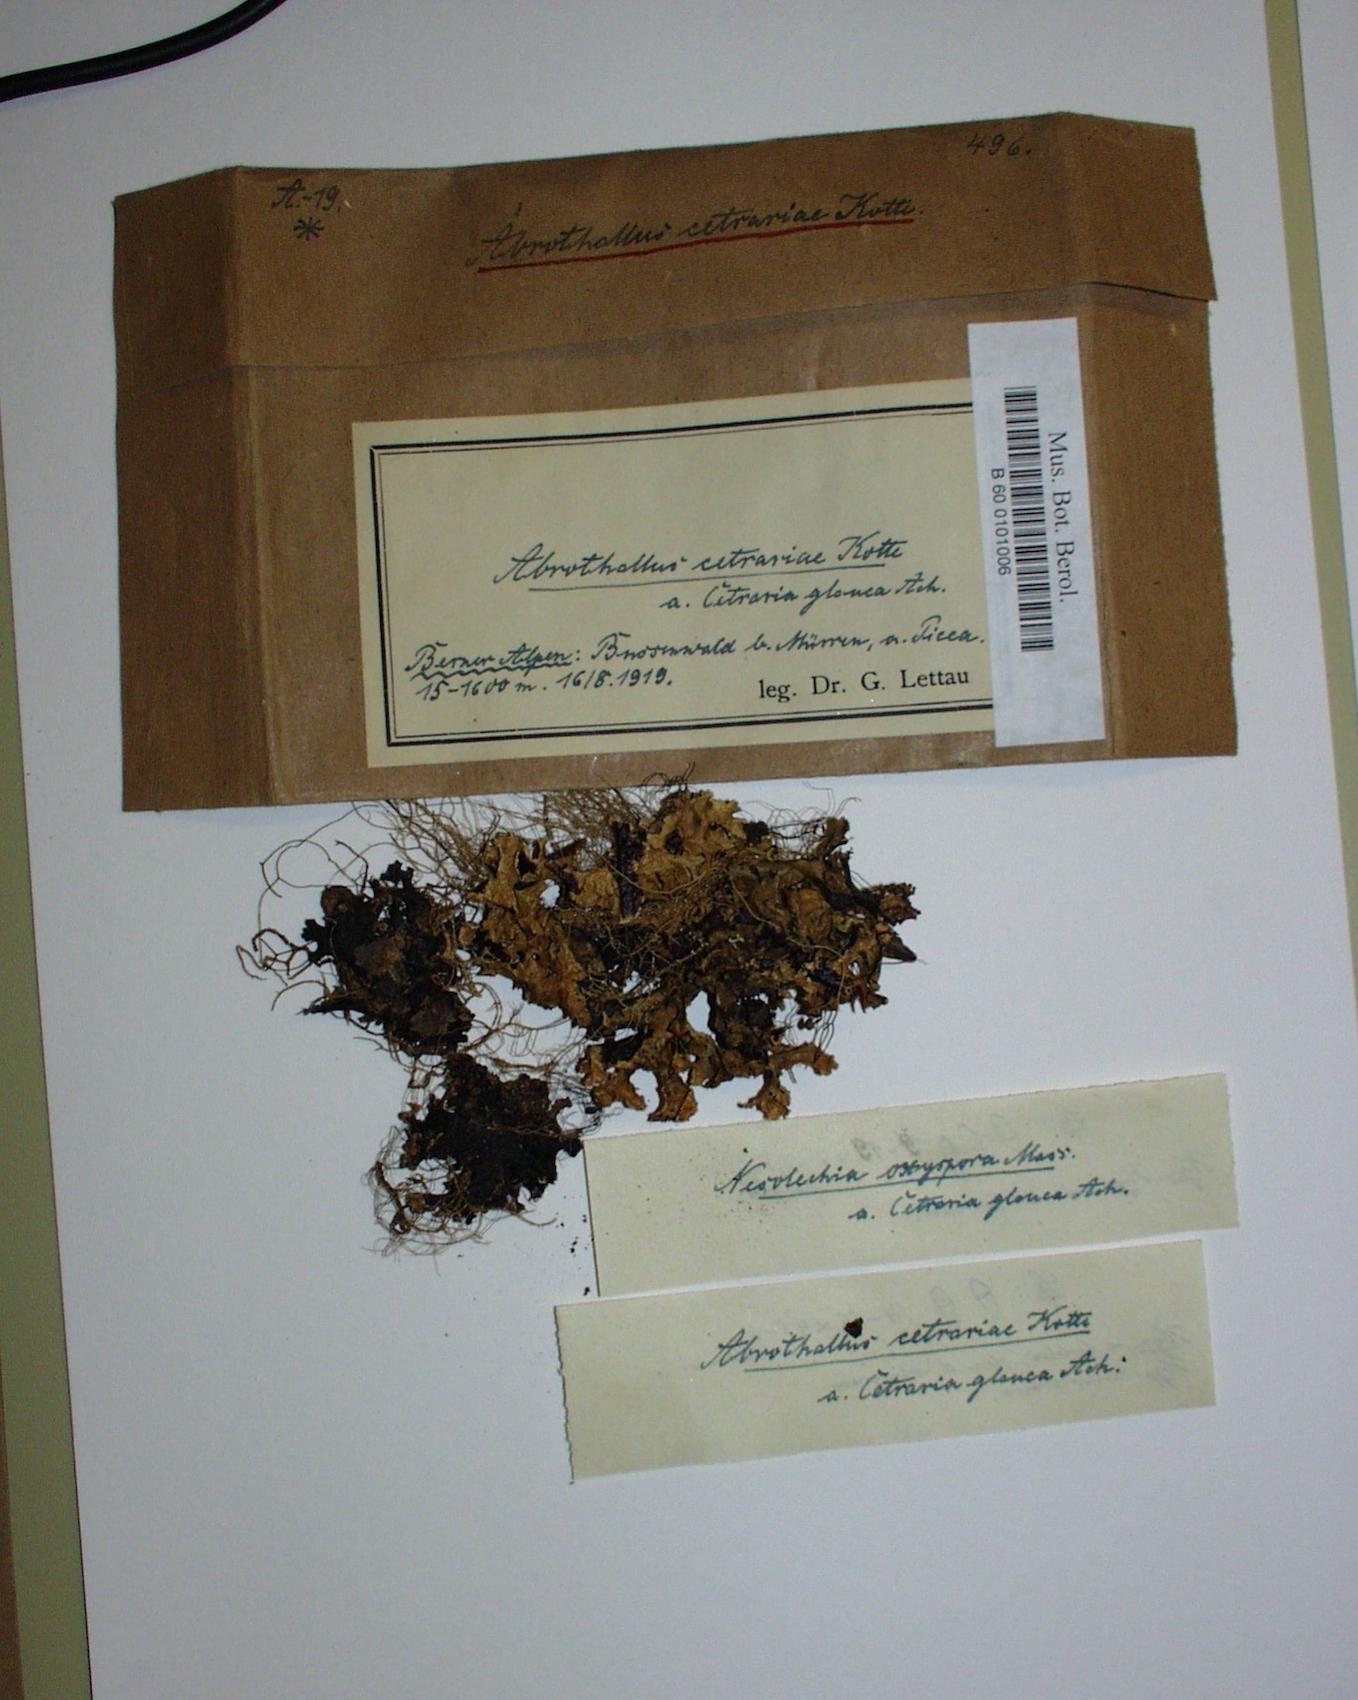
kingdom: Fungi
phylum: Ascomycota
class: Dothideomycetes
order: Abrothallales
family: Abrothallaceae
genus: Abrothallus
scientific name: Abrothallus cetrariae
